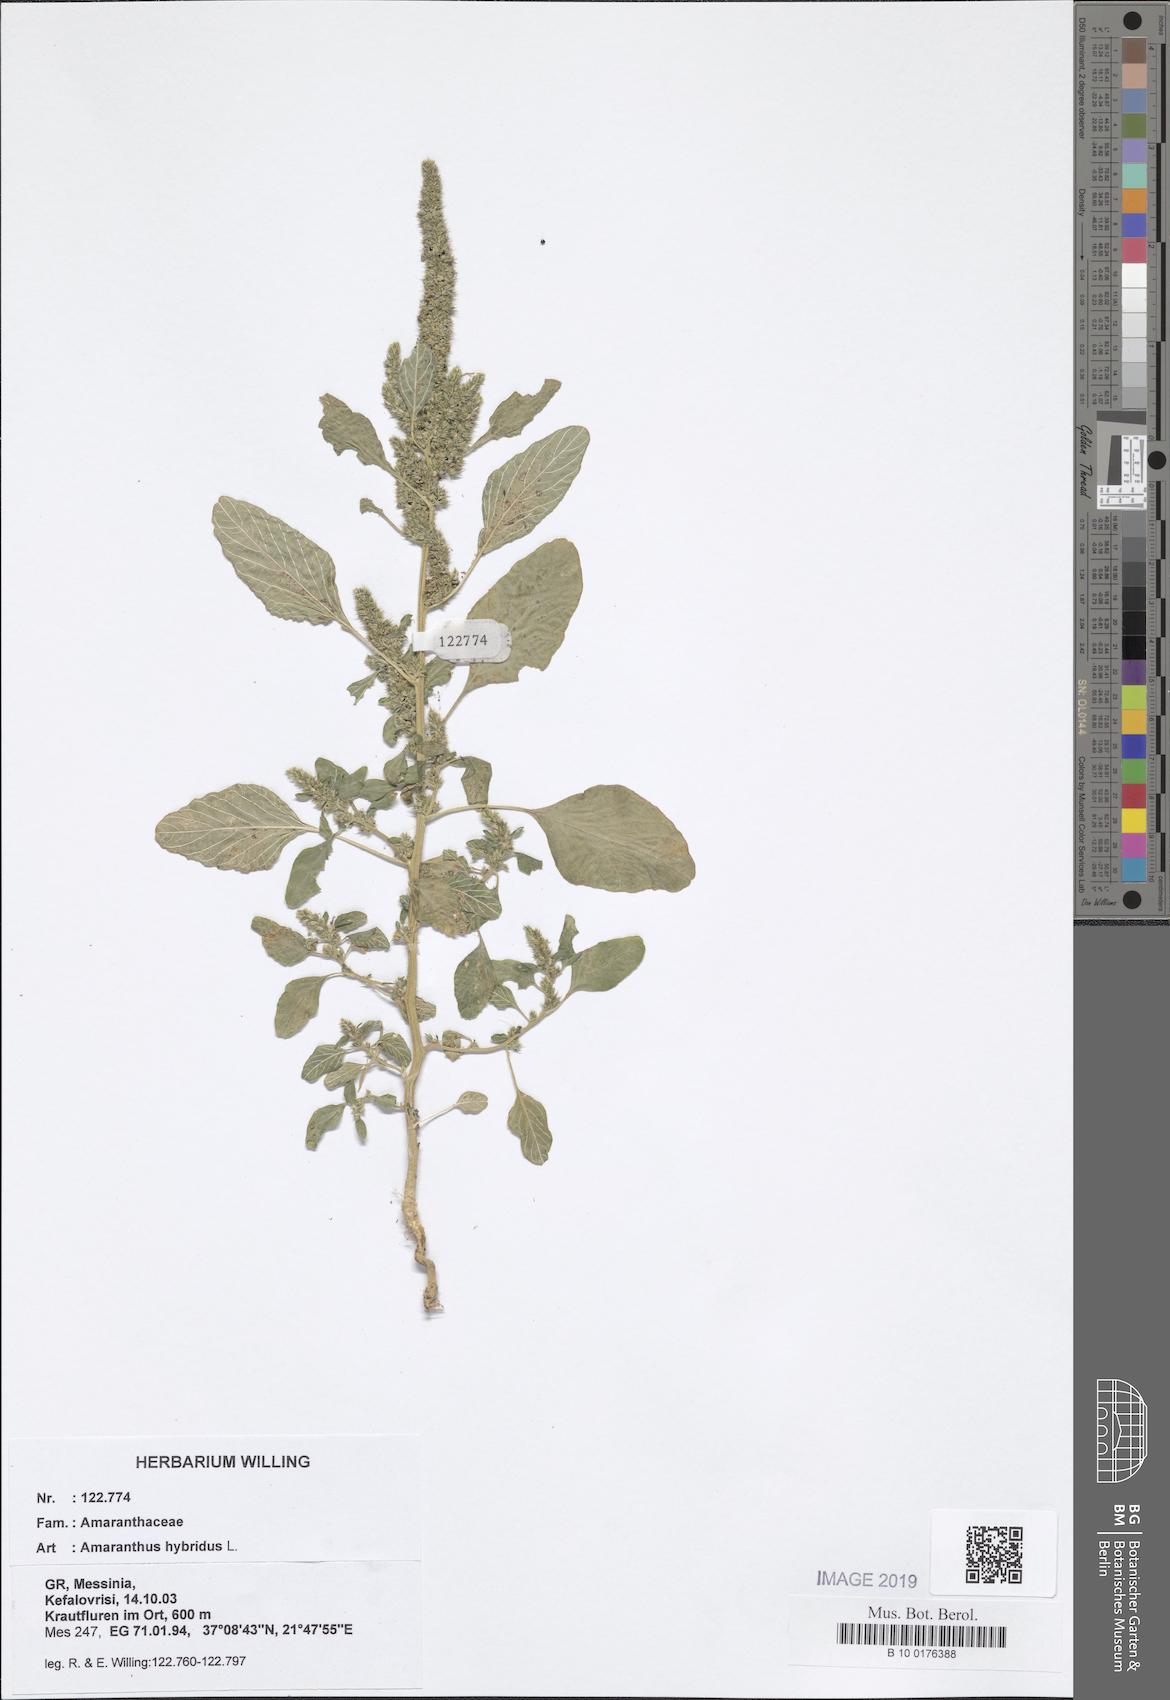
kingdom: Plantae
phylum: Tracheophyta
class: Magnoliopsida
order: Caryophyllales
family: Amaranthaceae
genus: Amaranthus
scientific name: Amaranthus hybridus
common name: Green amaranth
